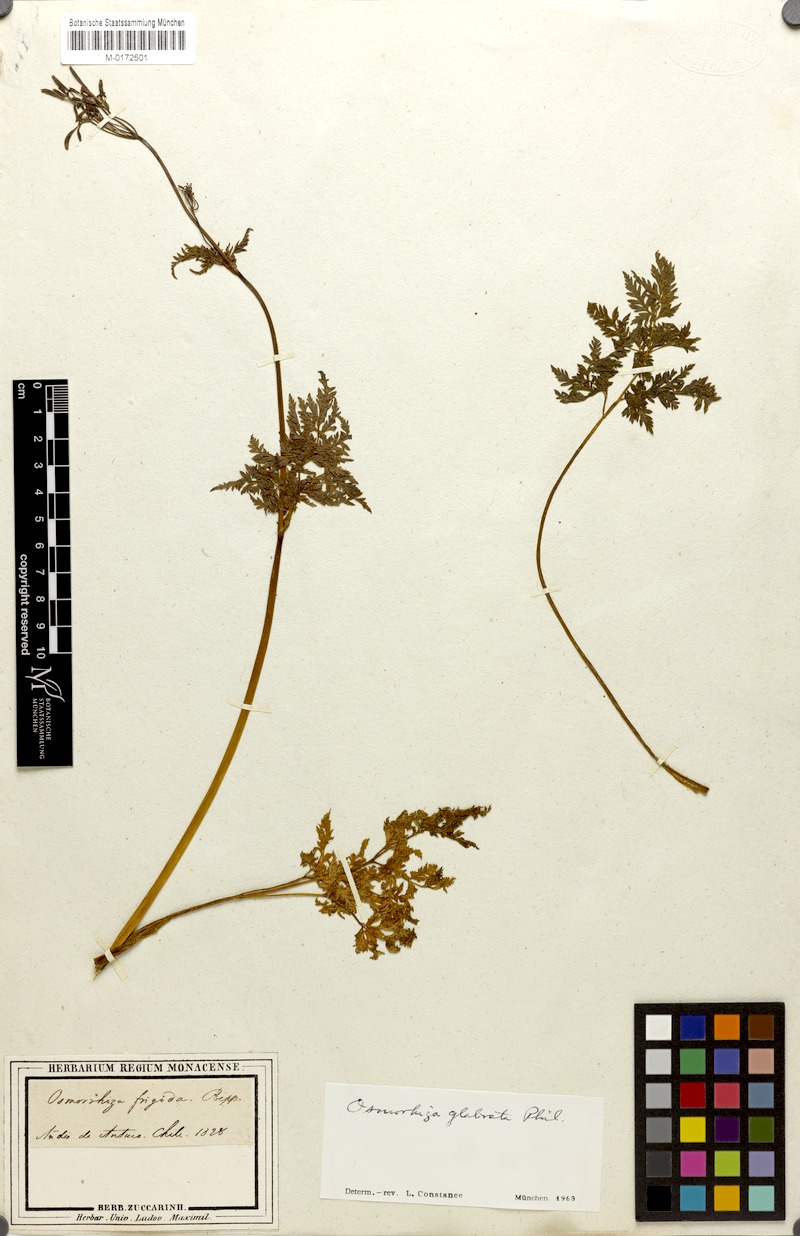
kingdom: Plantae
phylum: Tracheophyta
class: Magnoliopsida
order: Apiales
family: Apiaceae
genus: Osmorhiza
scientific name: Osmorhiza glabrata
